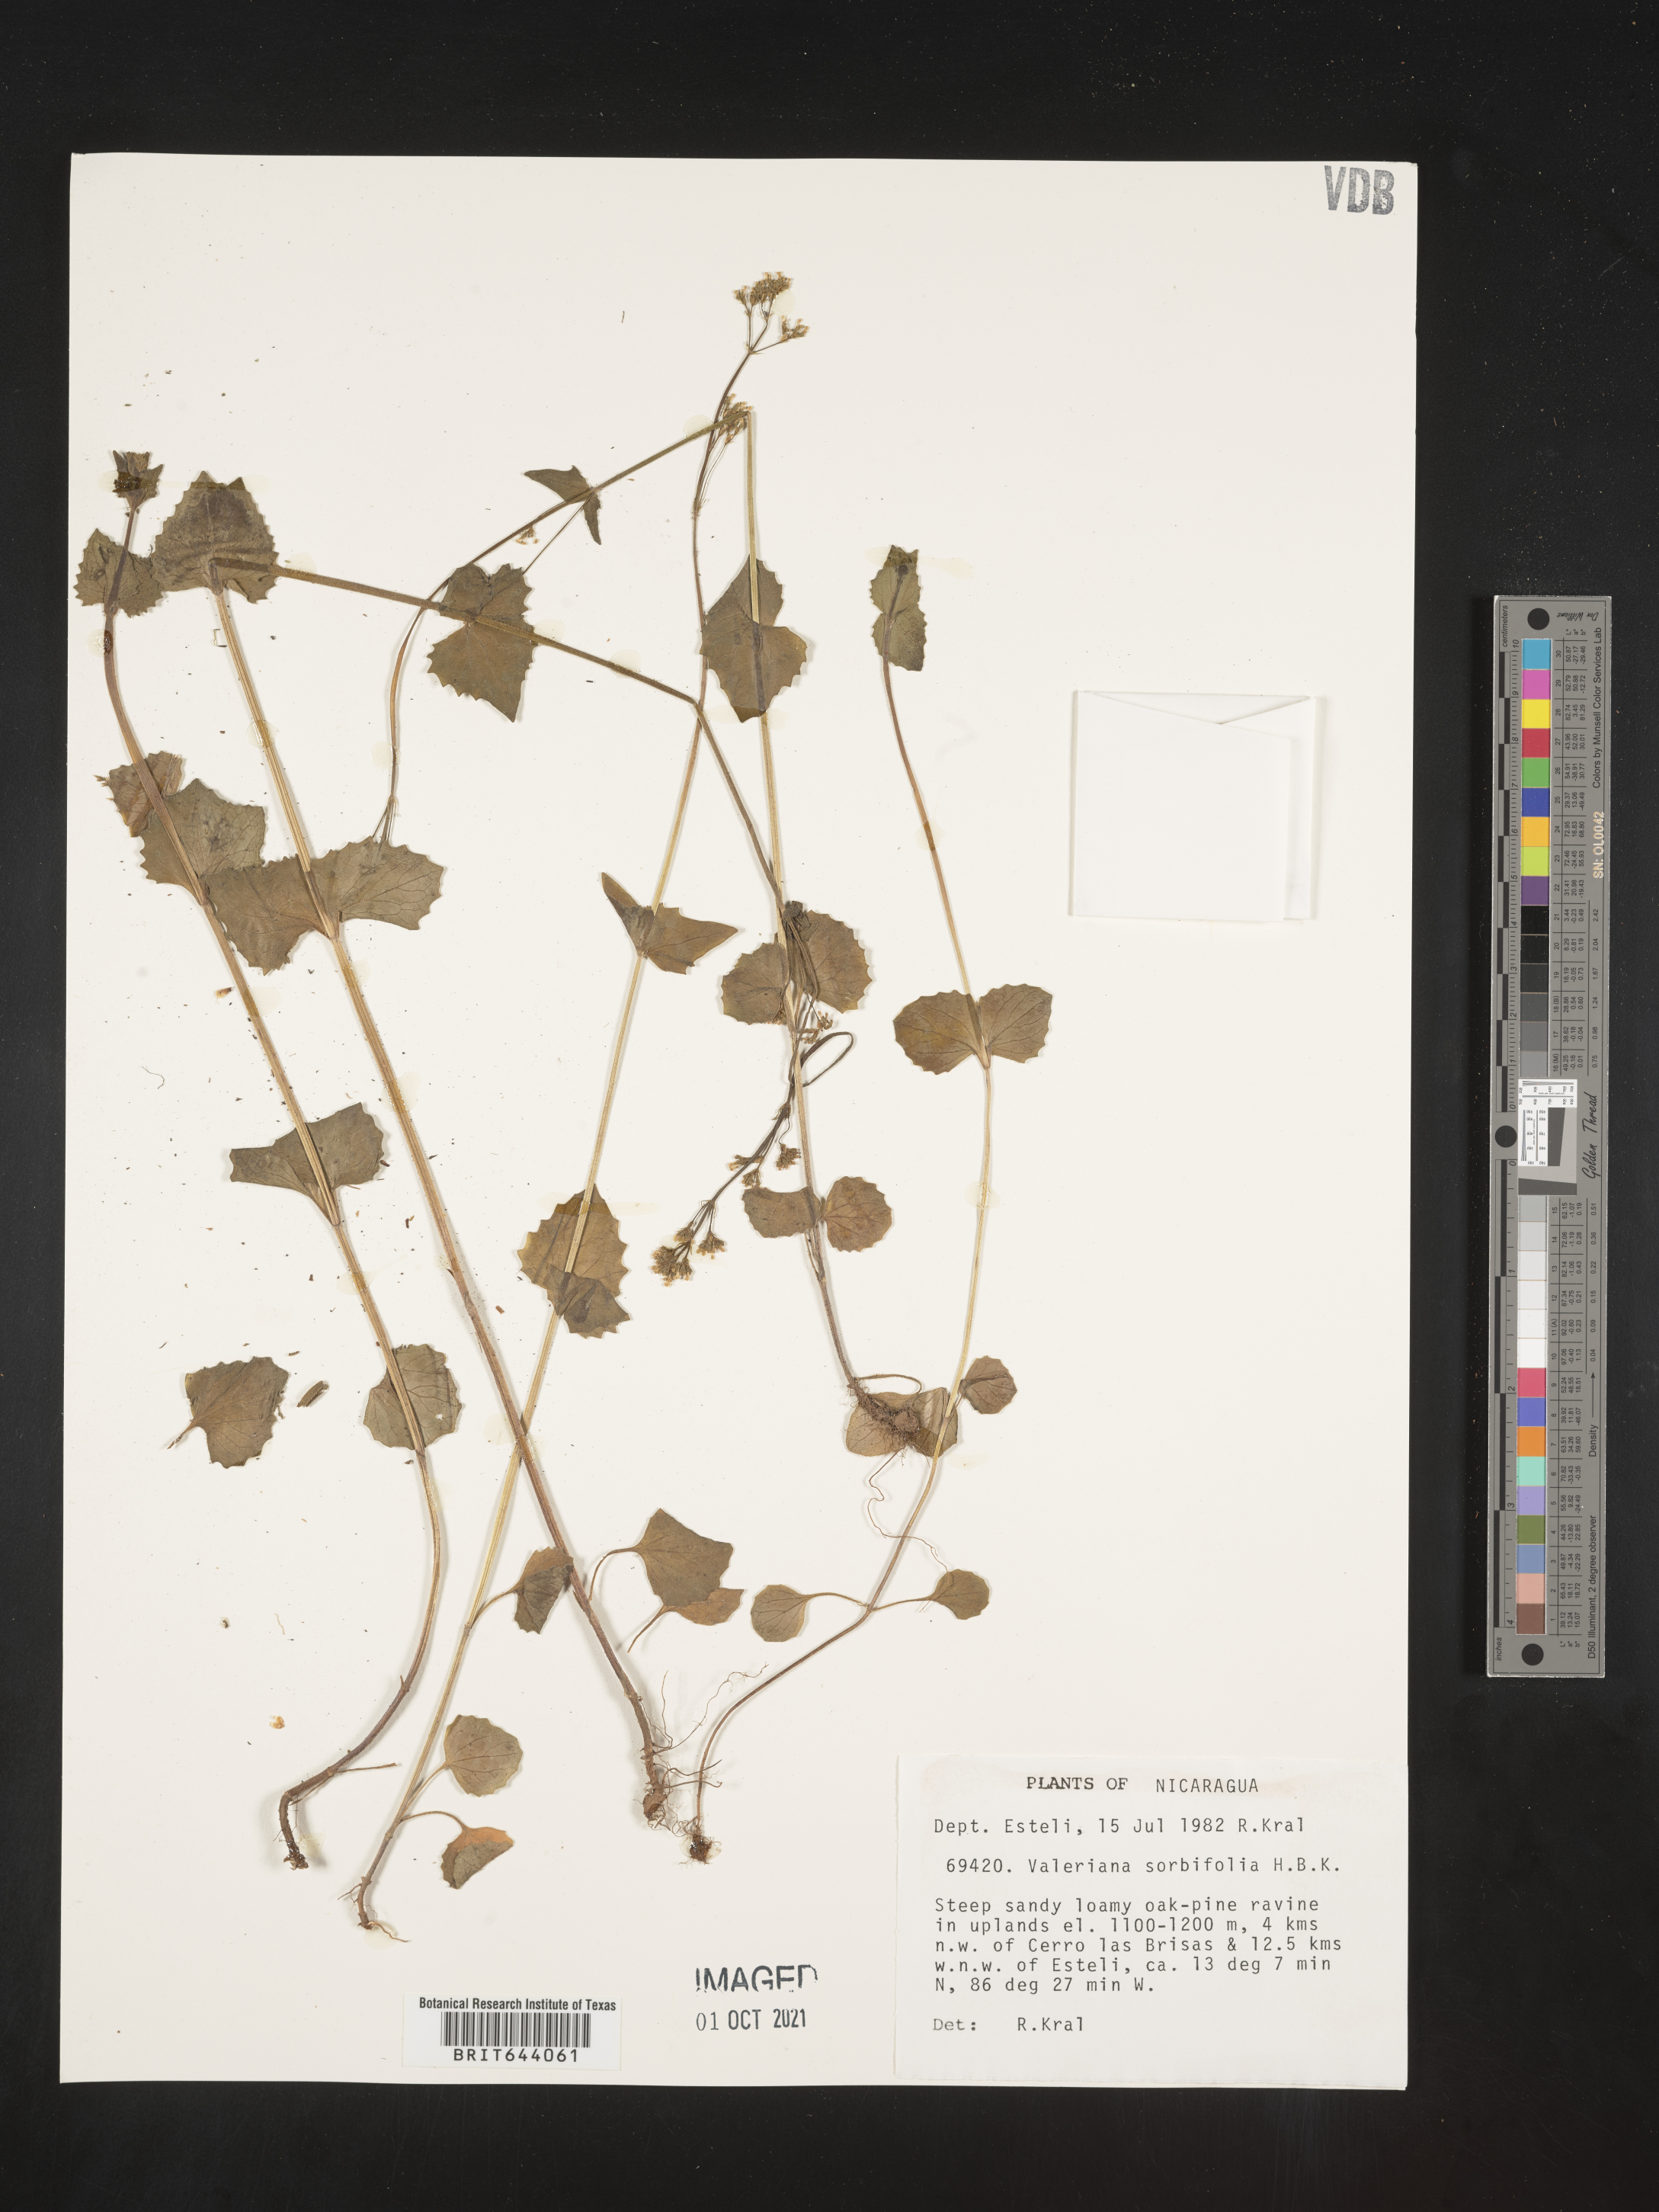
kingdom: Plantae
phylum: Tracheophyta
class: Magnoliopsida
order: Dipsacales
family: Caprifoliaceae
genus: Valeriana
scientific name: Valeriana sorbifolia
